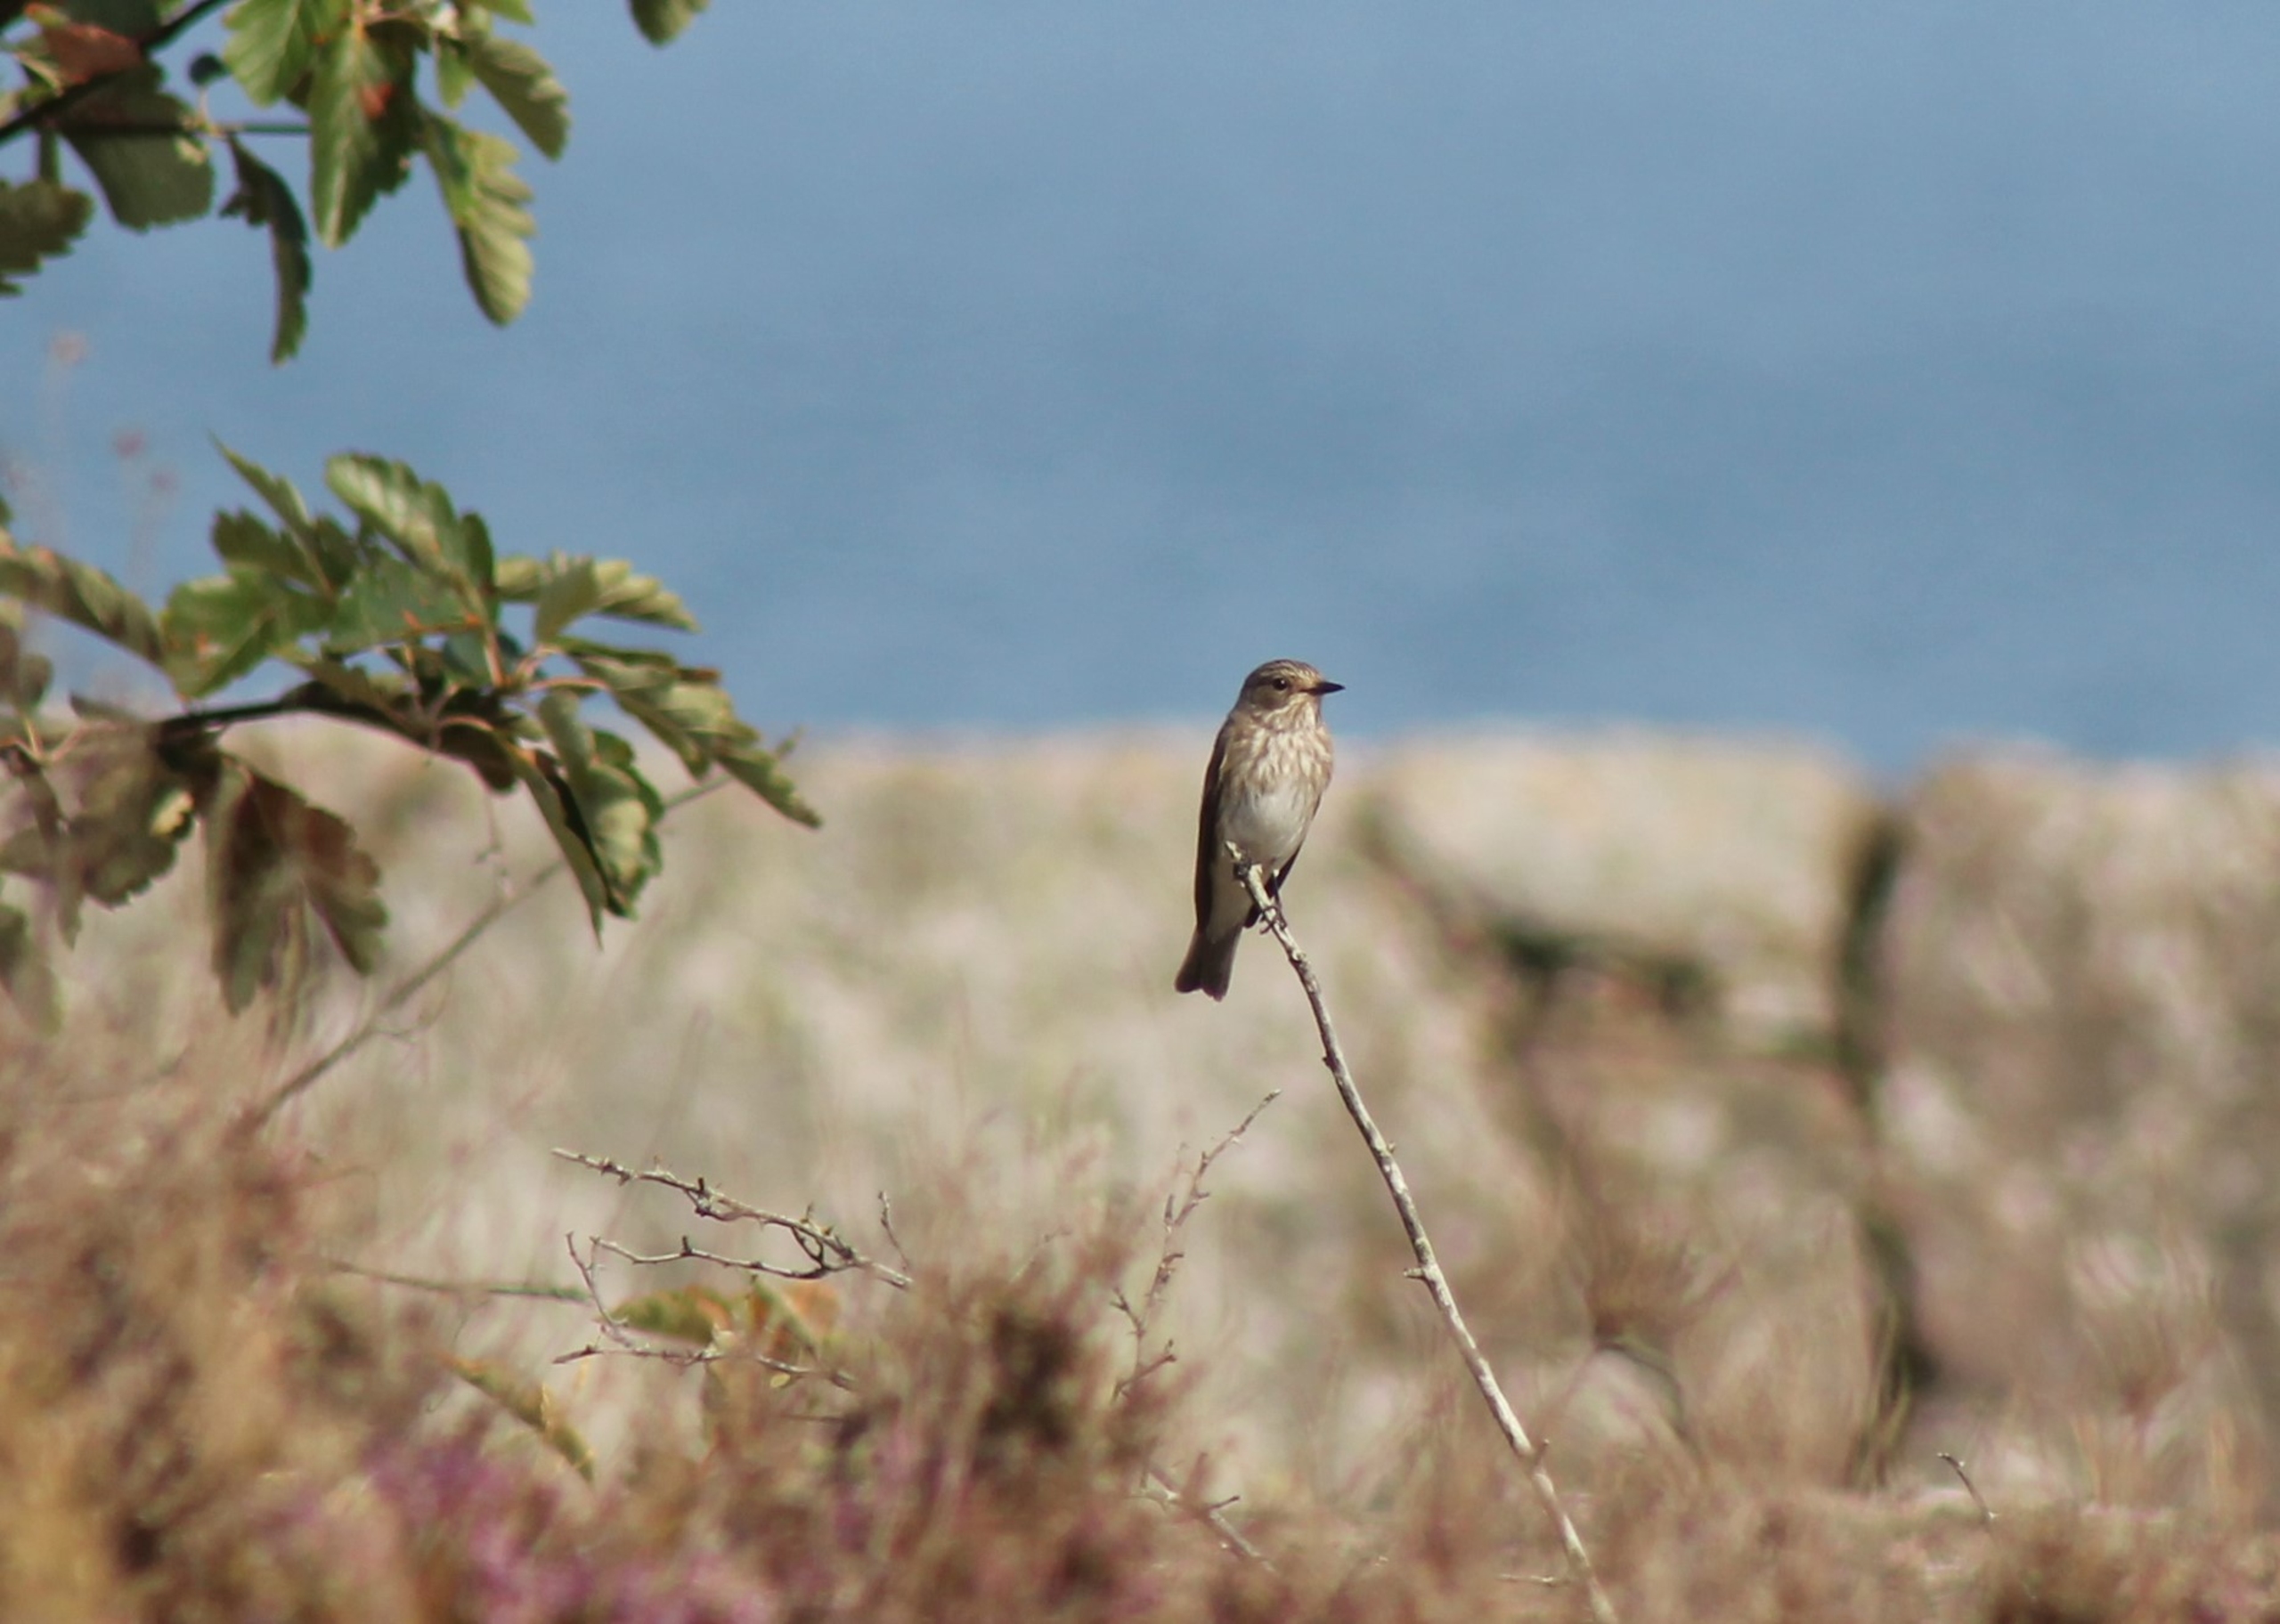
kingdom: Animalia
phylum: Chordata
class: Aves
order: Passeriformes
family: Muscicapidae
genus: Muscicapa
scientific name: Muscicapa striata
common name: Grå fluesnapper
